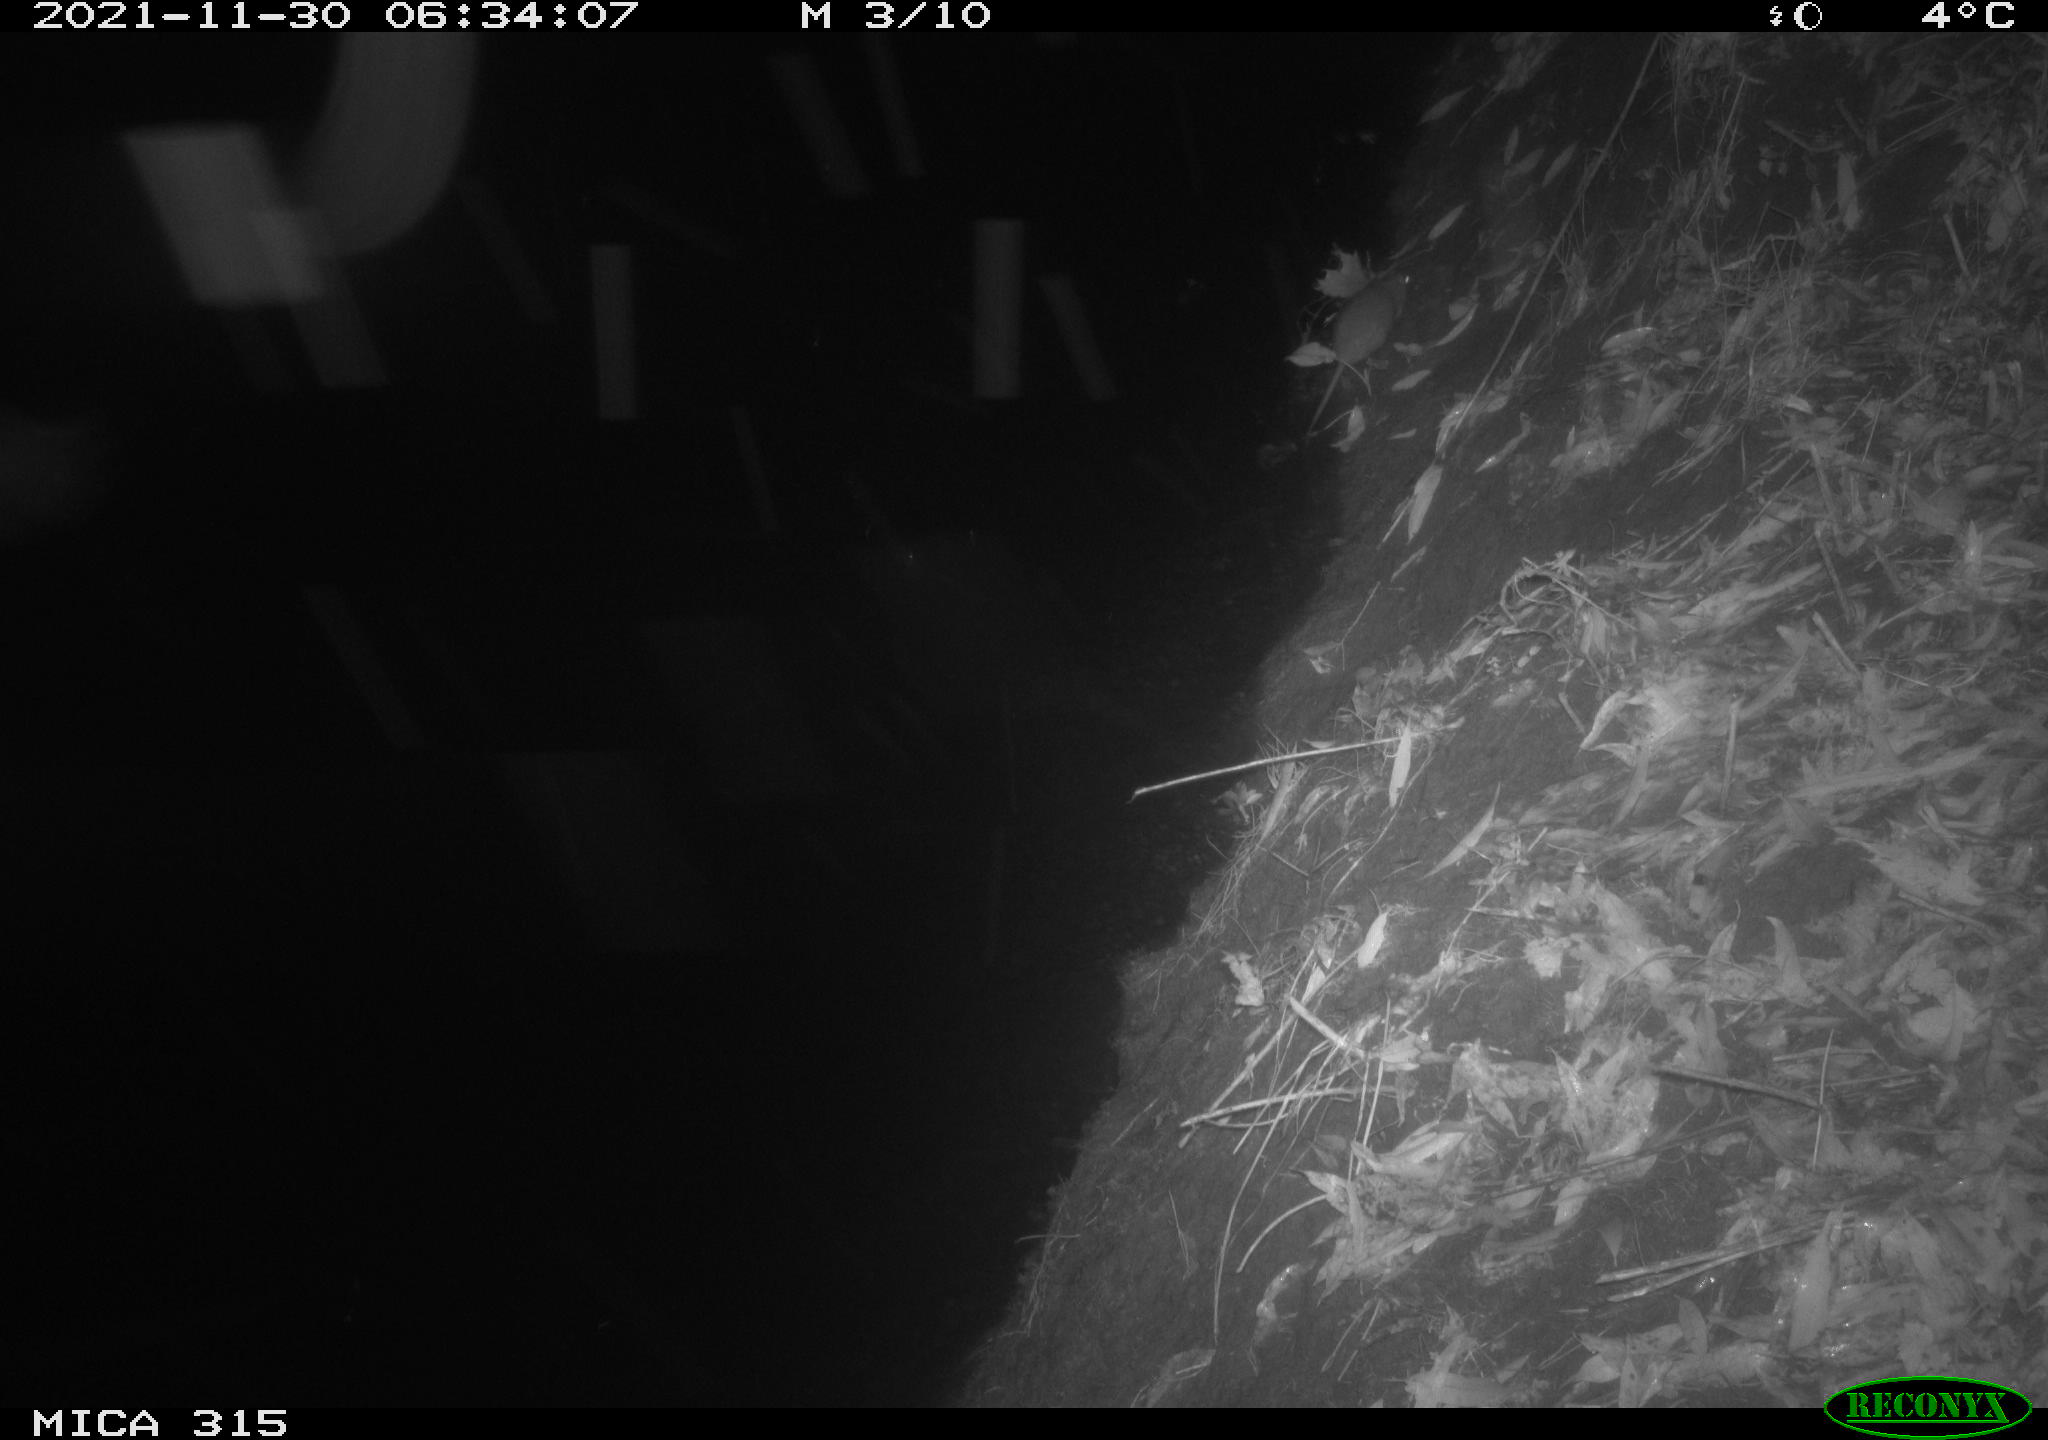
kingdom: Animalia
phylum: Chordata
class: Mammalia
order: Rodentia
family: Muridae
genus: Rattus
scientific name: Rattus norvegicus
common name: Brown rat
